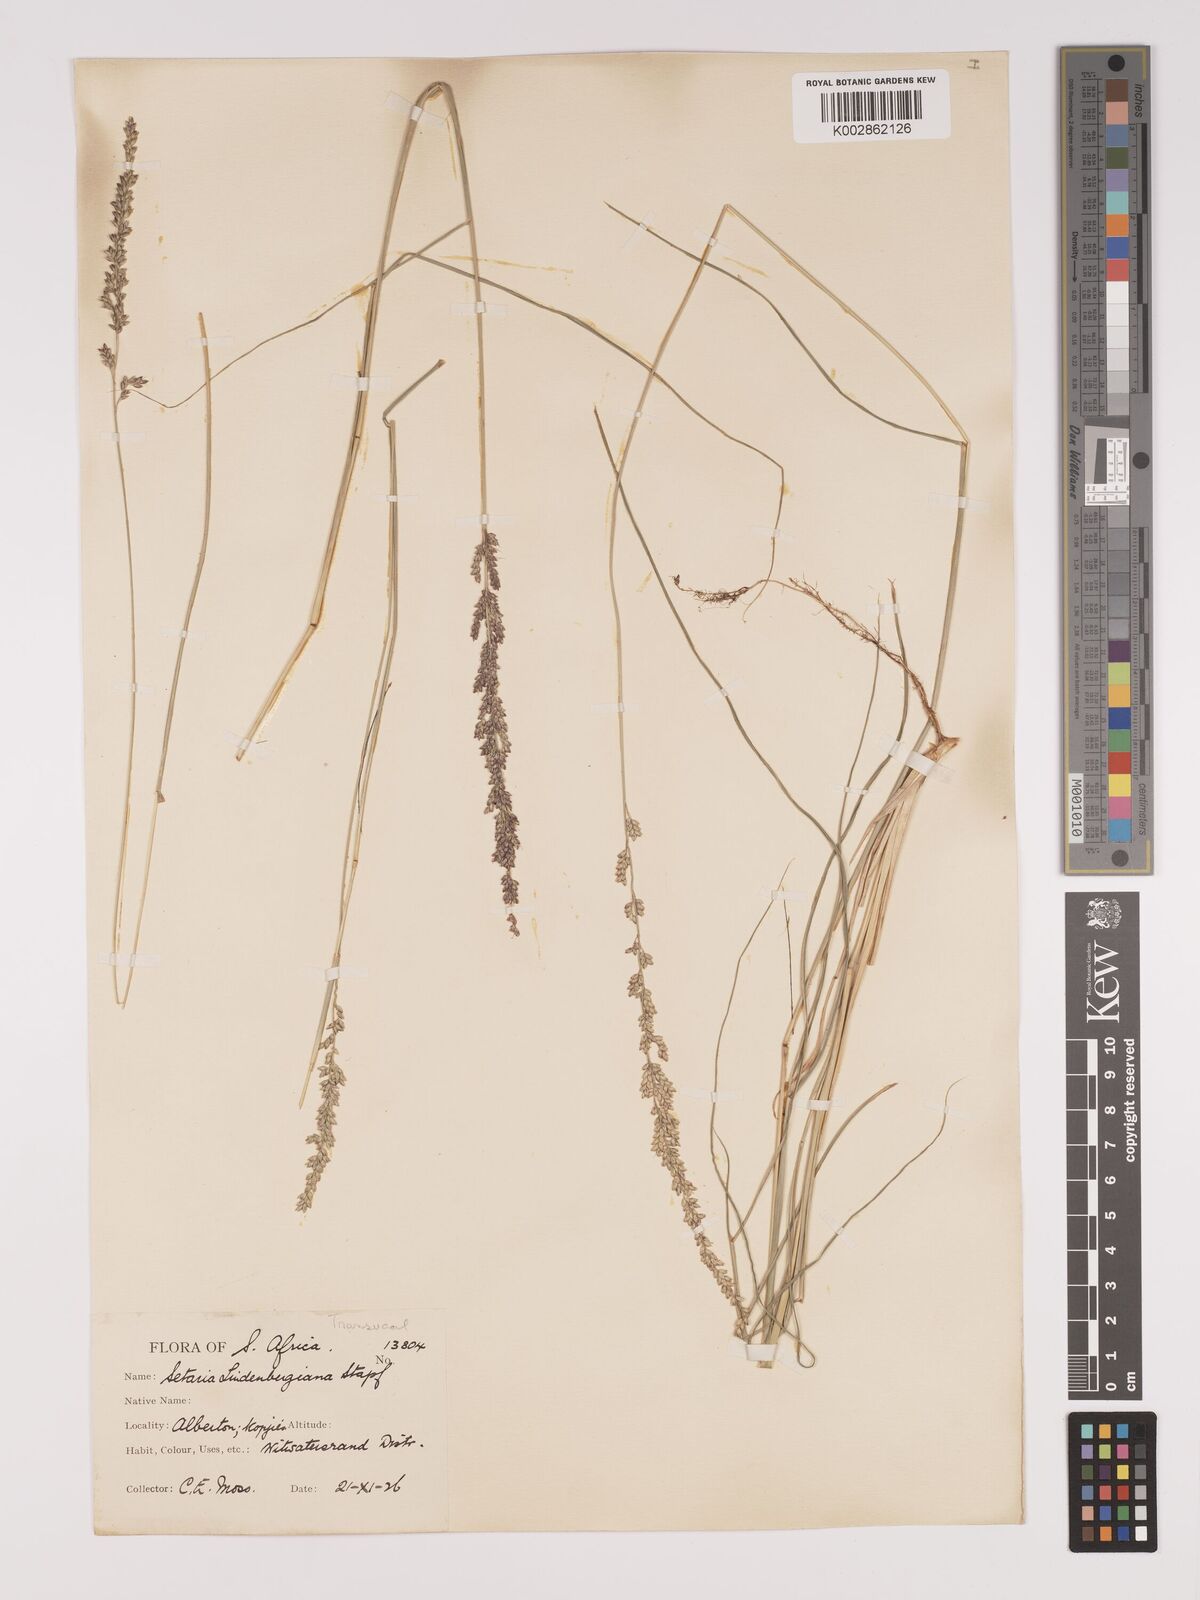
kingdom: Plantae
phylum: Tracheophyta
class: Liliopsida
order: Poales
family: Poaceae
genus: Setaria
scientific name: Setaria lindenbergiana
